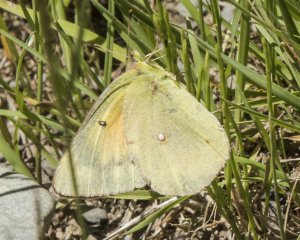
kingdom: Animalia
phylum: Arthropoda
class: Insecta
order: Lepidoptera
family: Pieridae
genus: Colias
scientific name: Colias eurytheme
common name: Orange Sulphur
